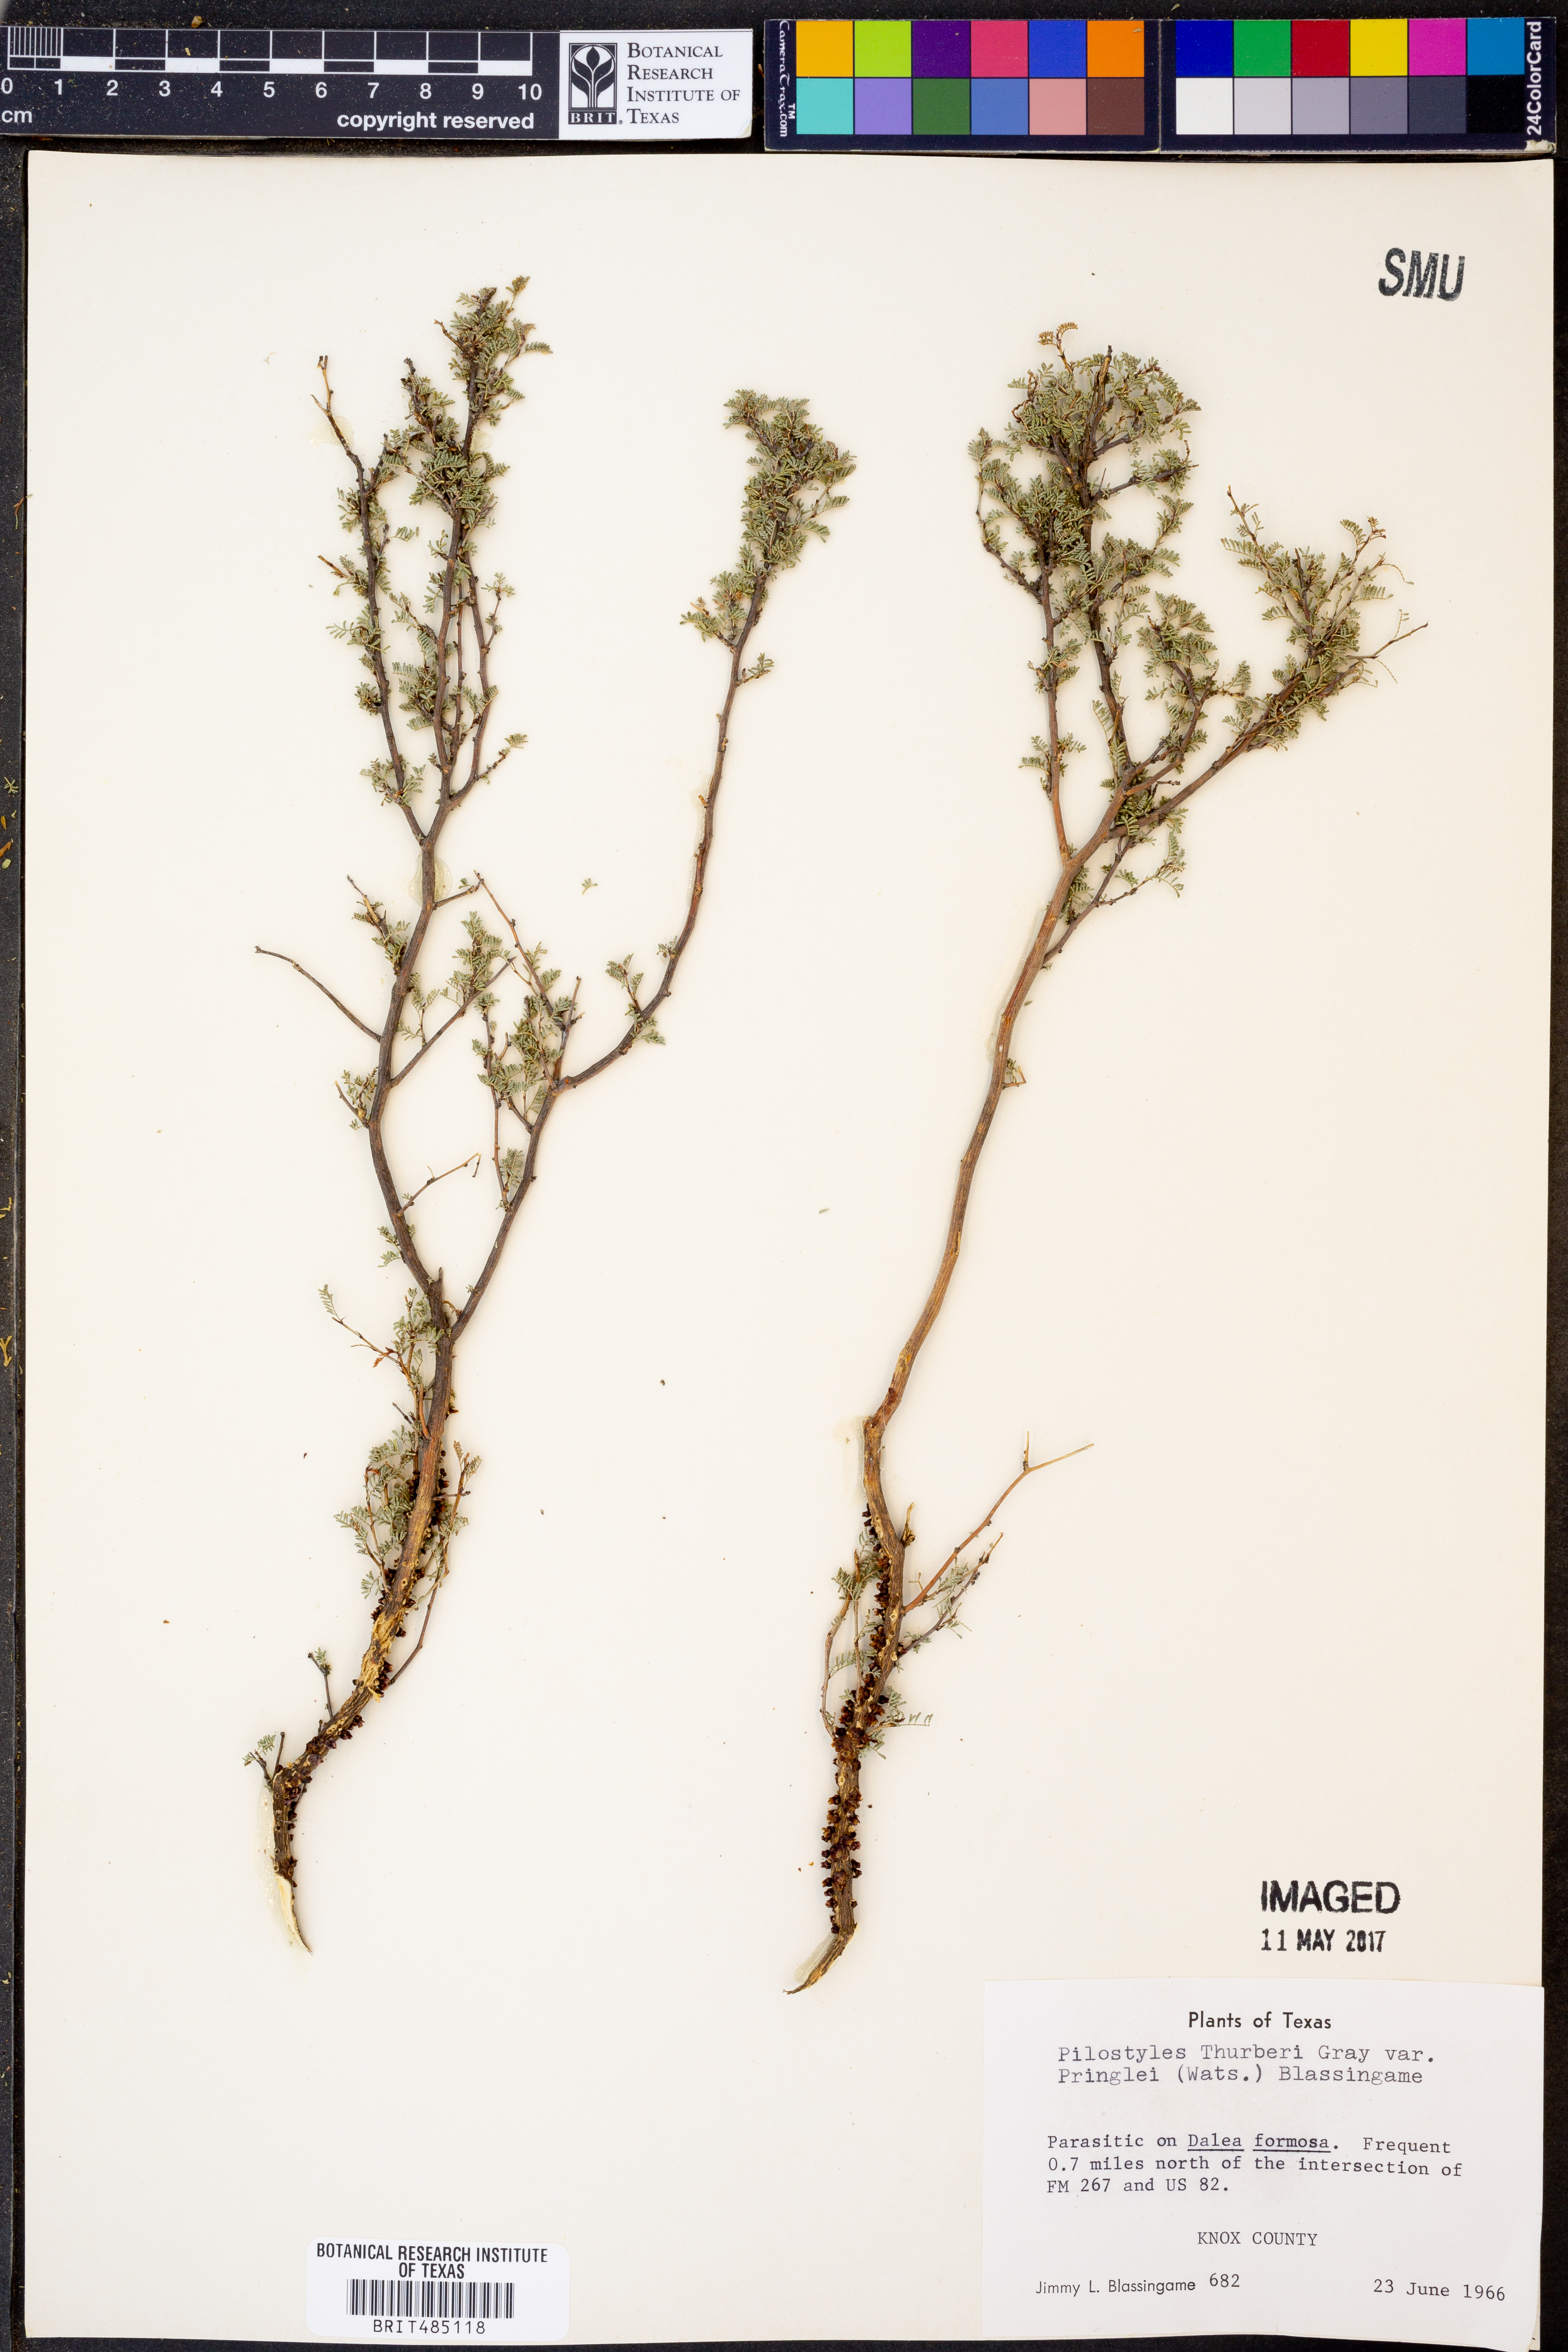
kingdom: Plantae
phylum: Tracheophyta
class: Magnoliopsida
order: Cucurbitales
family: Apodanthaceae
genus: Pilostyles
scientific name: Pilostyles thurberi
